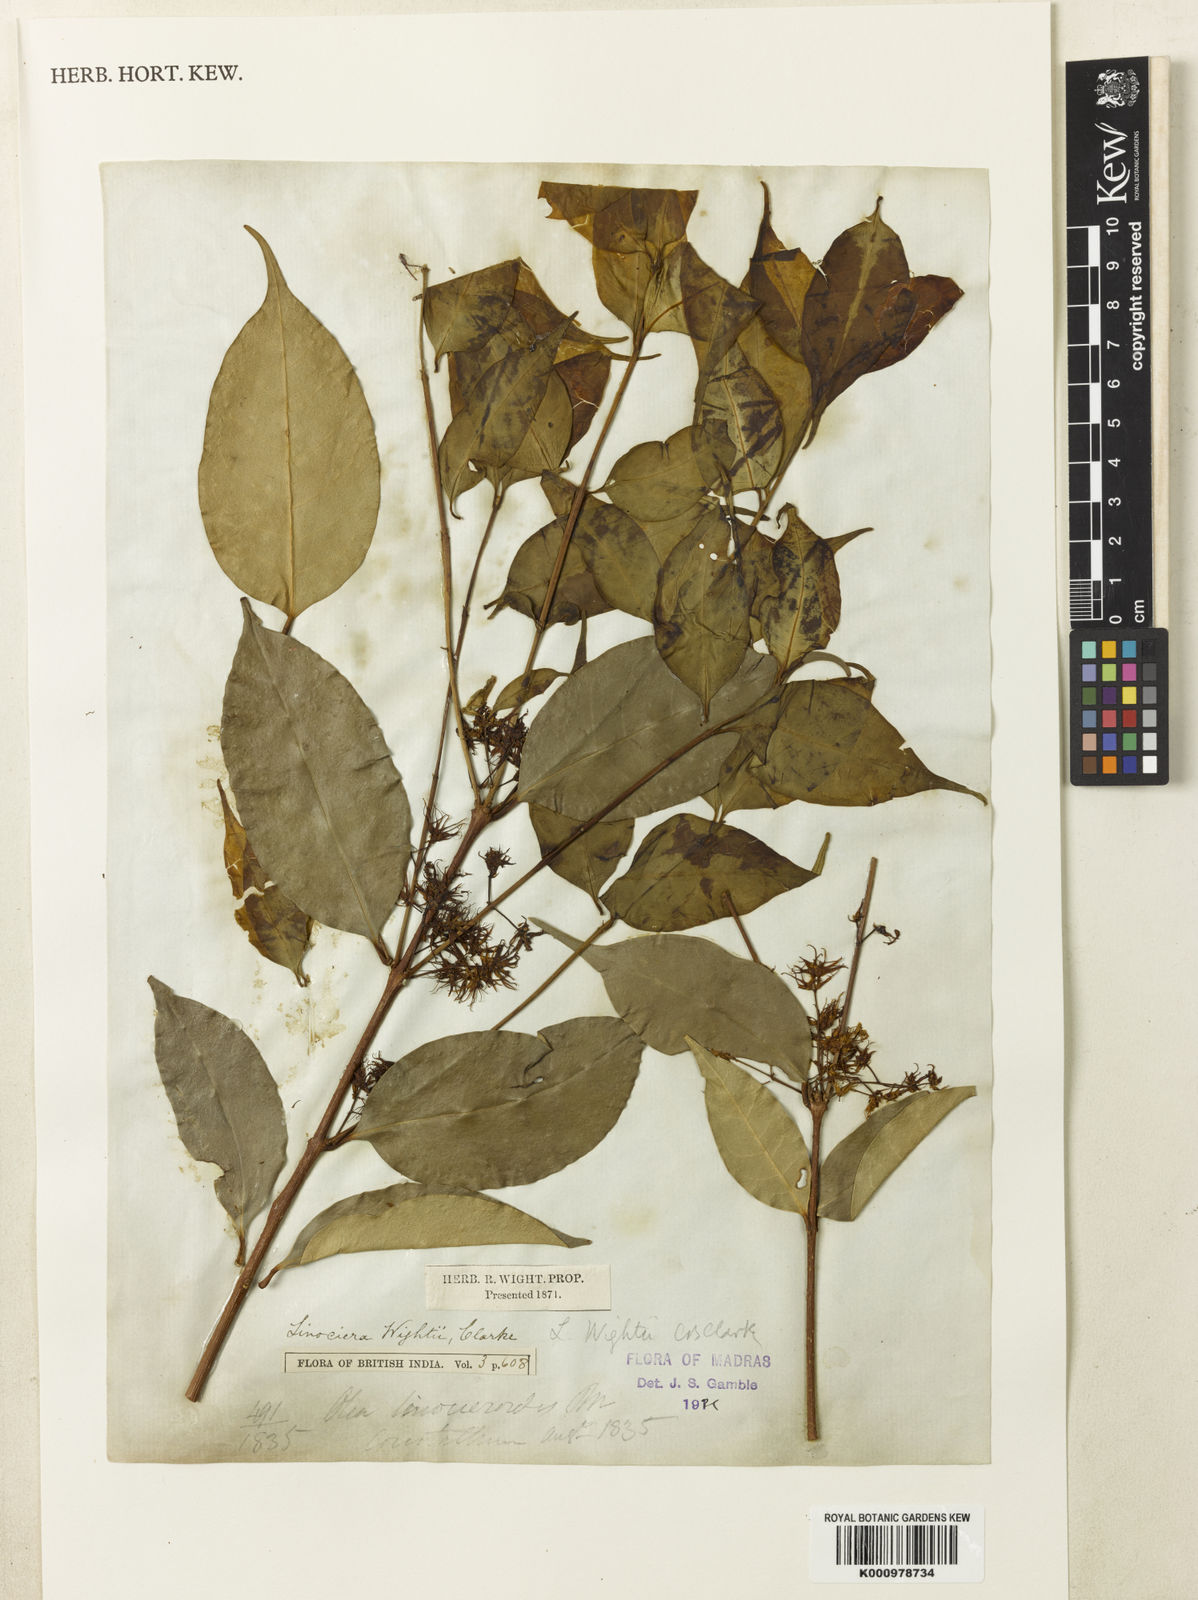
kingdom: Plantae
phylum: Tracheophyta
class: Magnoliopsida
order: Lamiales
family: Oleaceae
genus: Chionanthus
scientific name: Chionanthus mala-elengi
